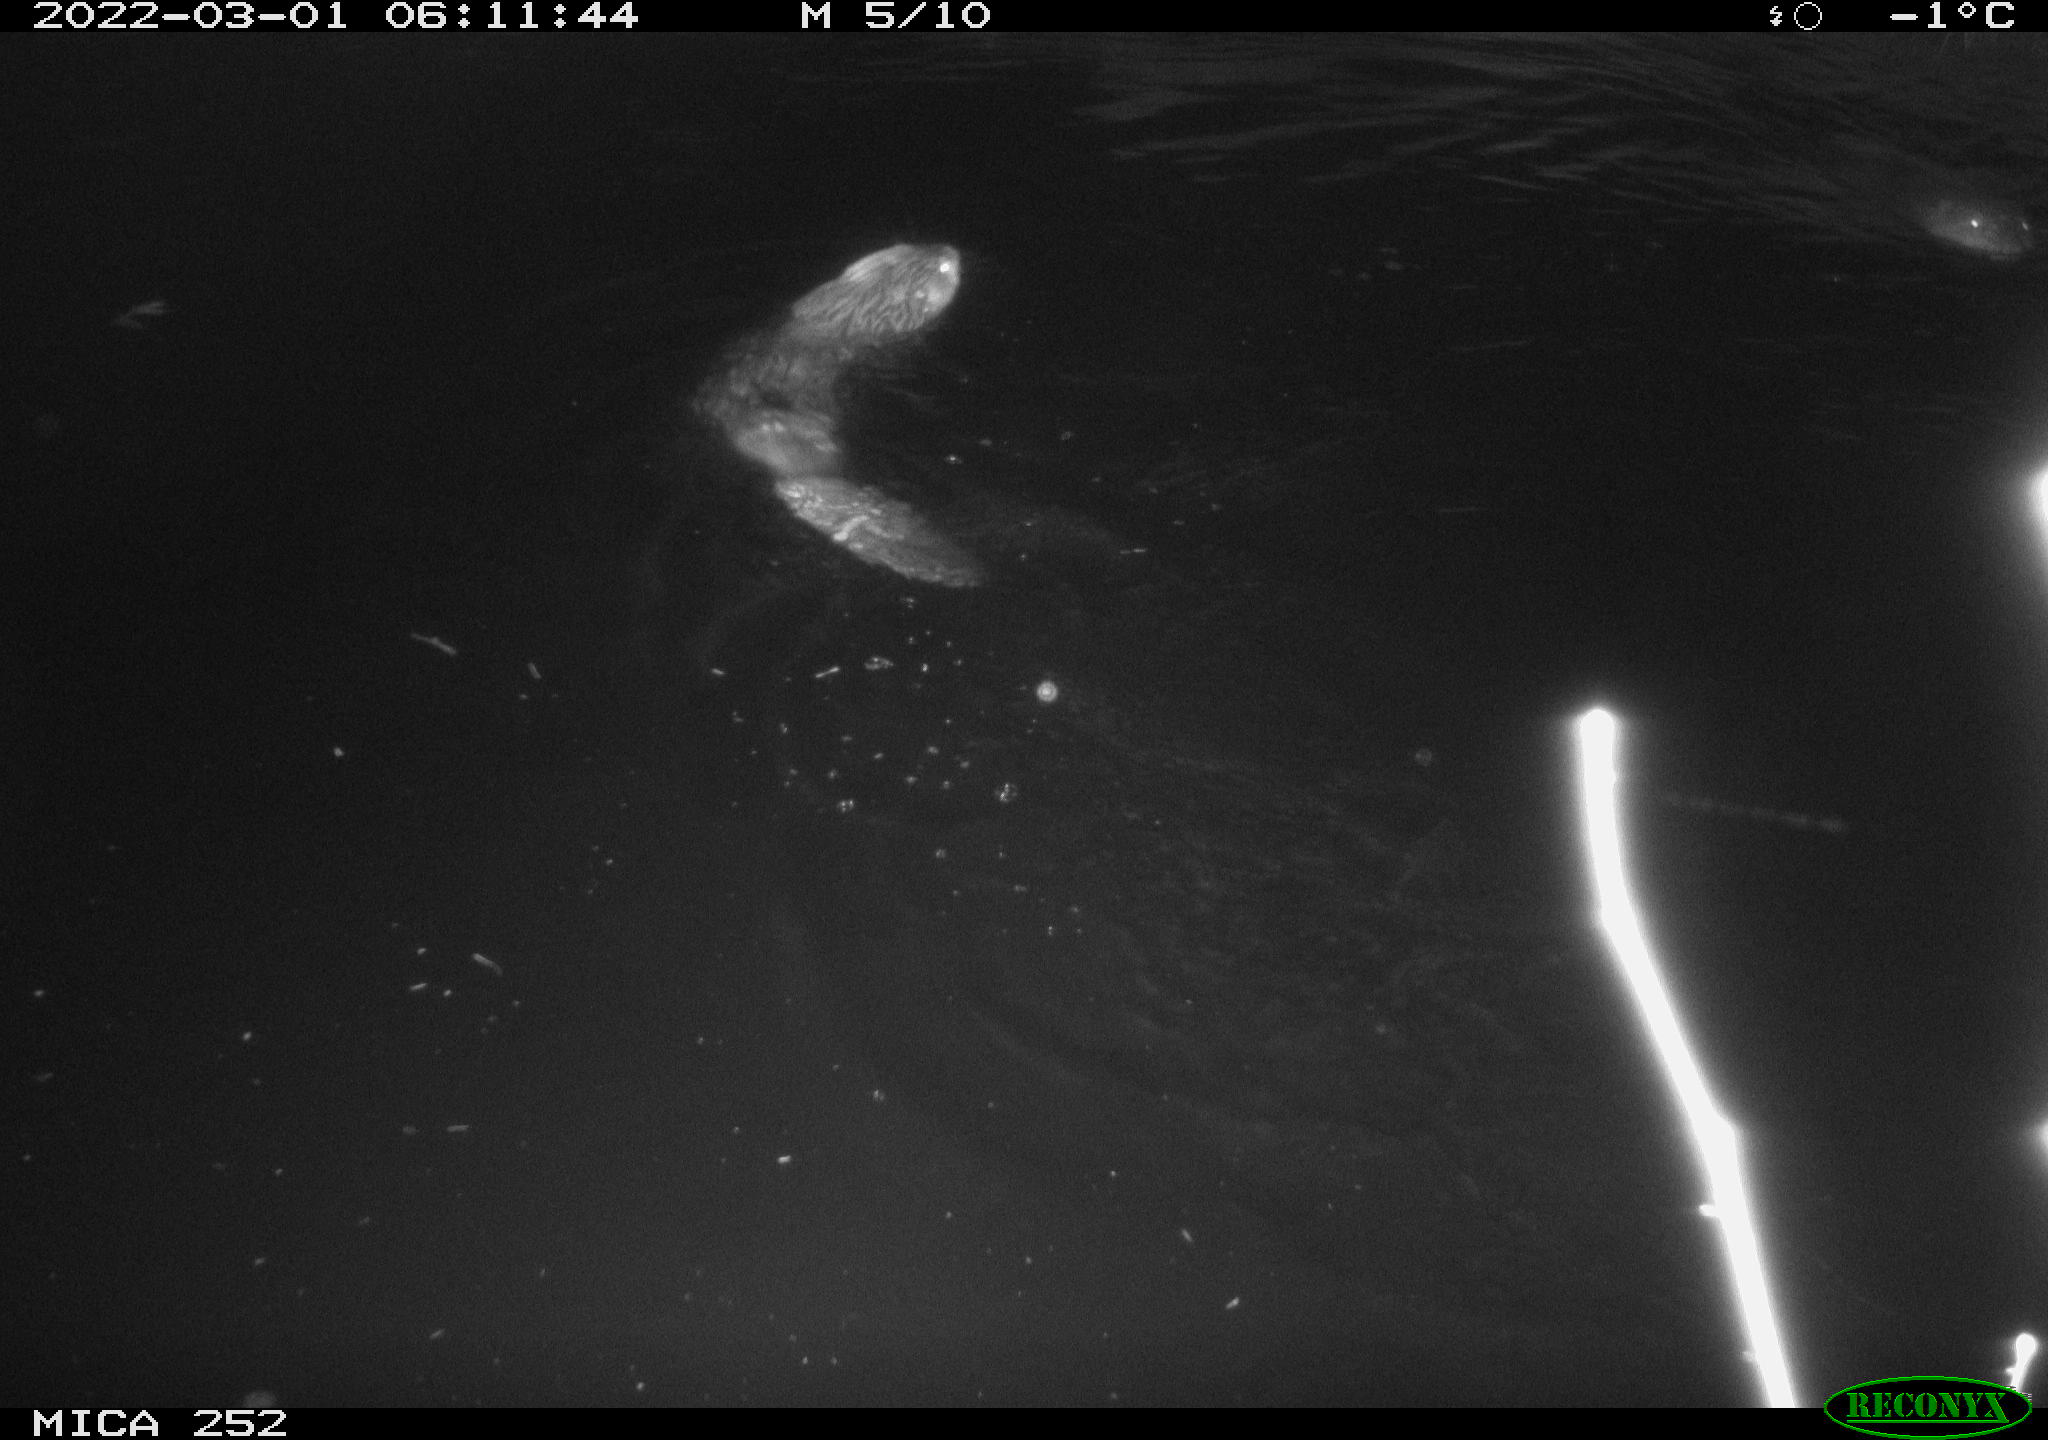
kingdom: Animalia
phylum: Chordata
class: Mammalia
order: Rodentia
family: Castoridae
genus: Castor
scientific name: Castor fiber
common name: Eurasian beaver
